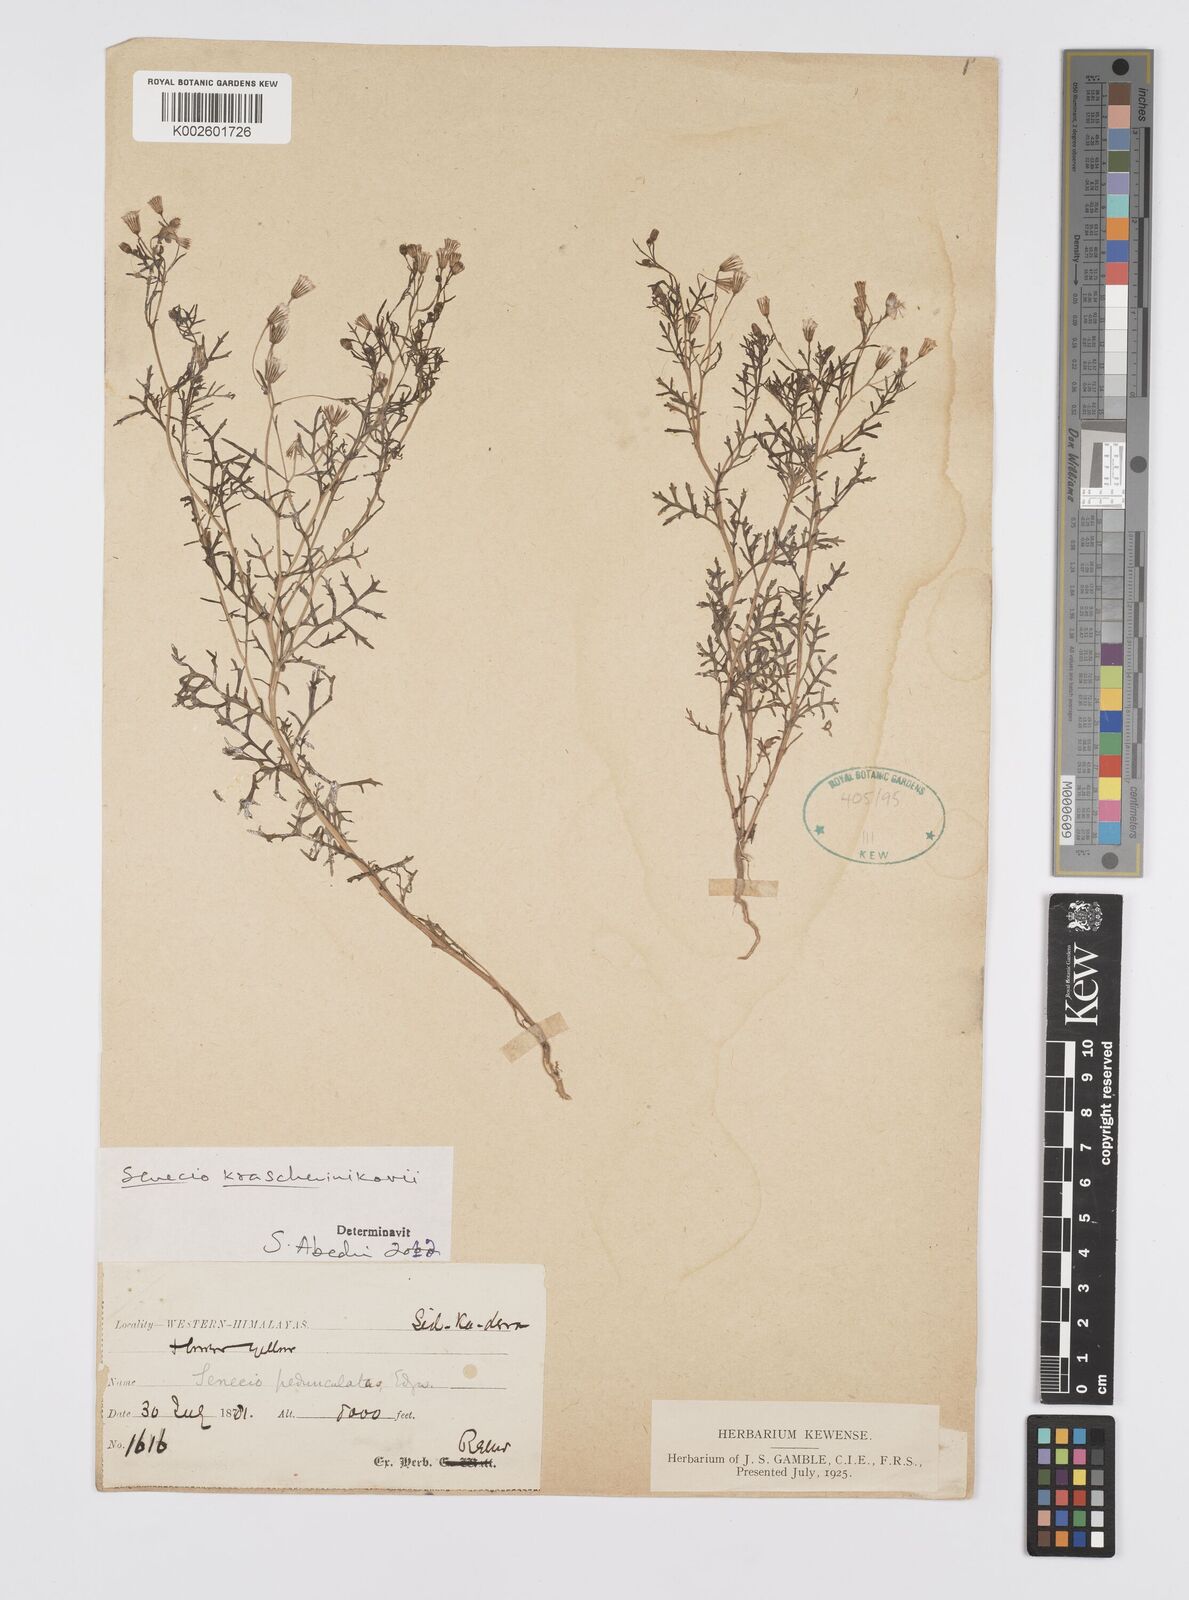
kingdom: Plantae
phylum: Tracheophyta
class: Magnoliopsida
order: Asterales
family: Asteraceae
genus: Senecio
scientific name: Senecio krascheninnikovii
